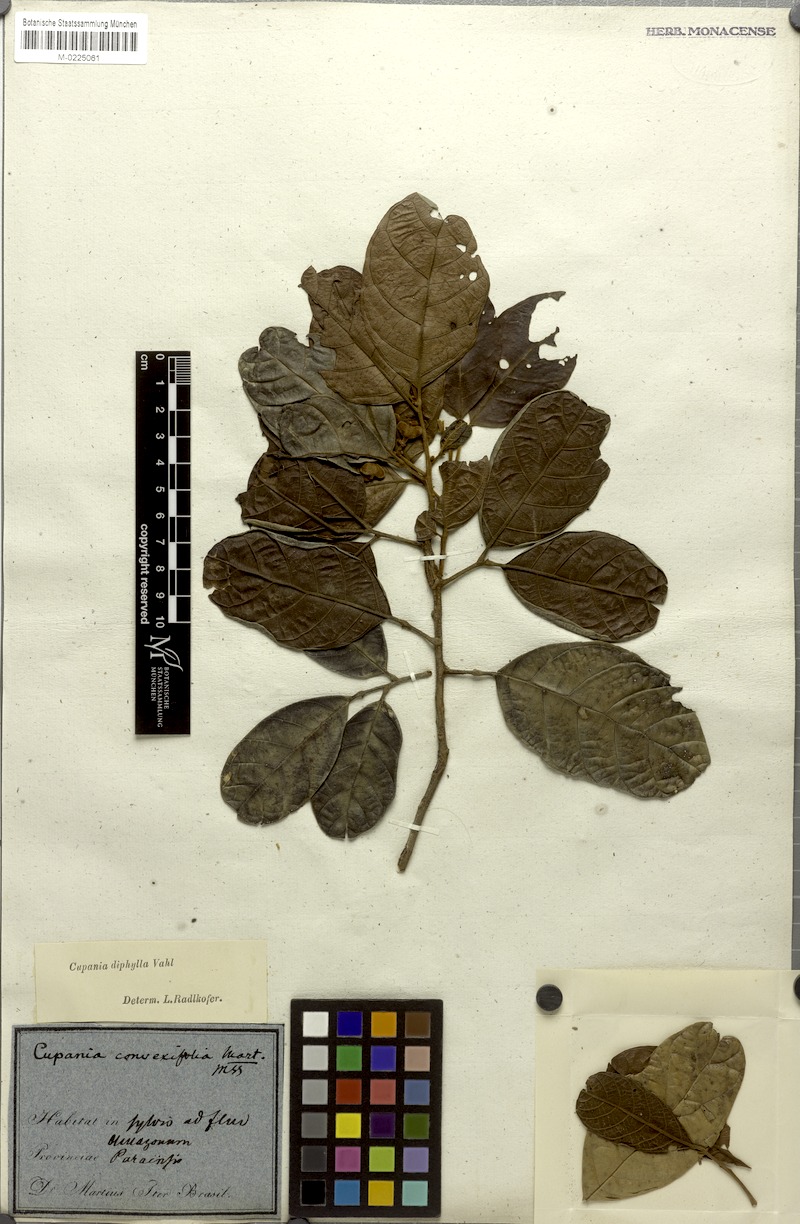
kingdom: Plantae
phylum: Tracheophyta
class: Magnoliopsida
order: Sapindales
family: Sapindaceae
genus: Cupania
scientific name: Cupania diphylla
